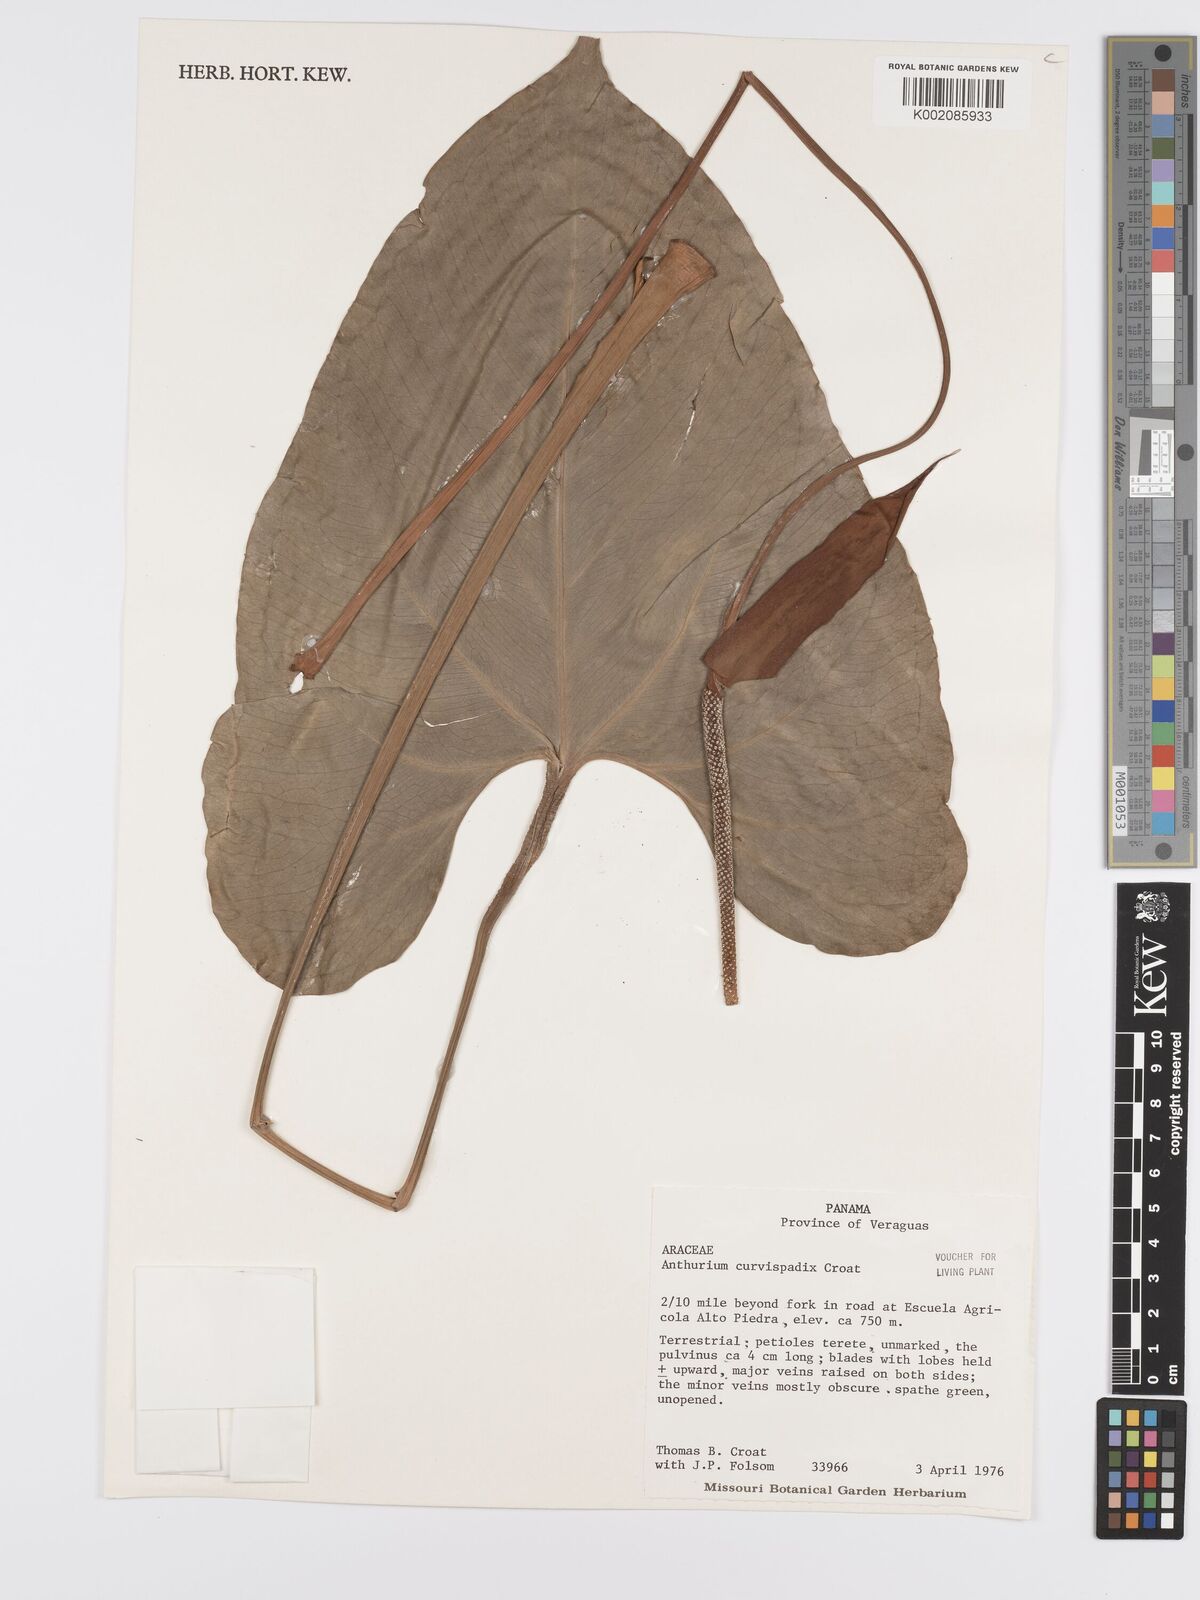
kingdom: Plantae
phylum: Tracheophyta
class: Liliopsida
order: Alismatales
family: Araceae
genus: Anthurium
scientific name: Anthurium curvispadix
